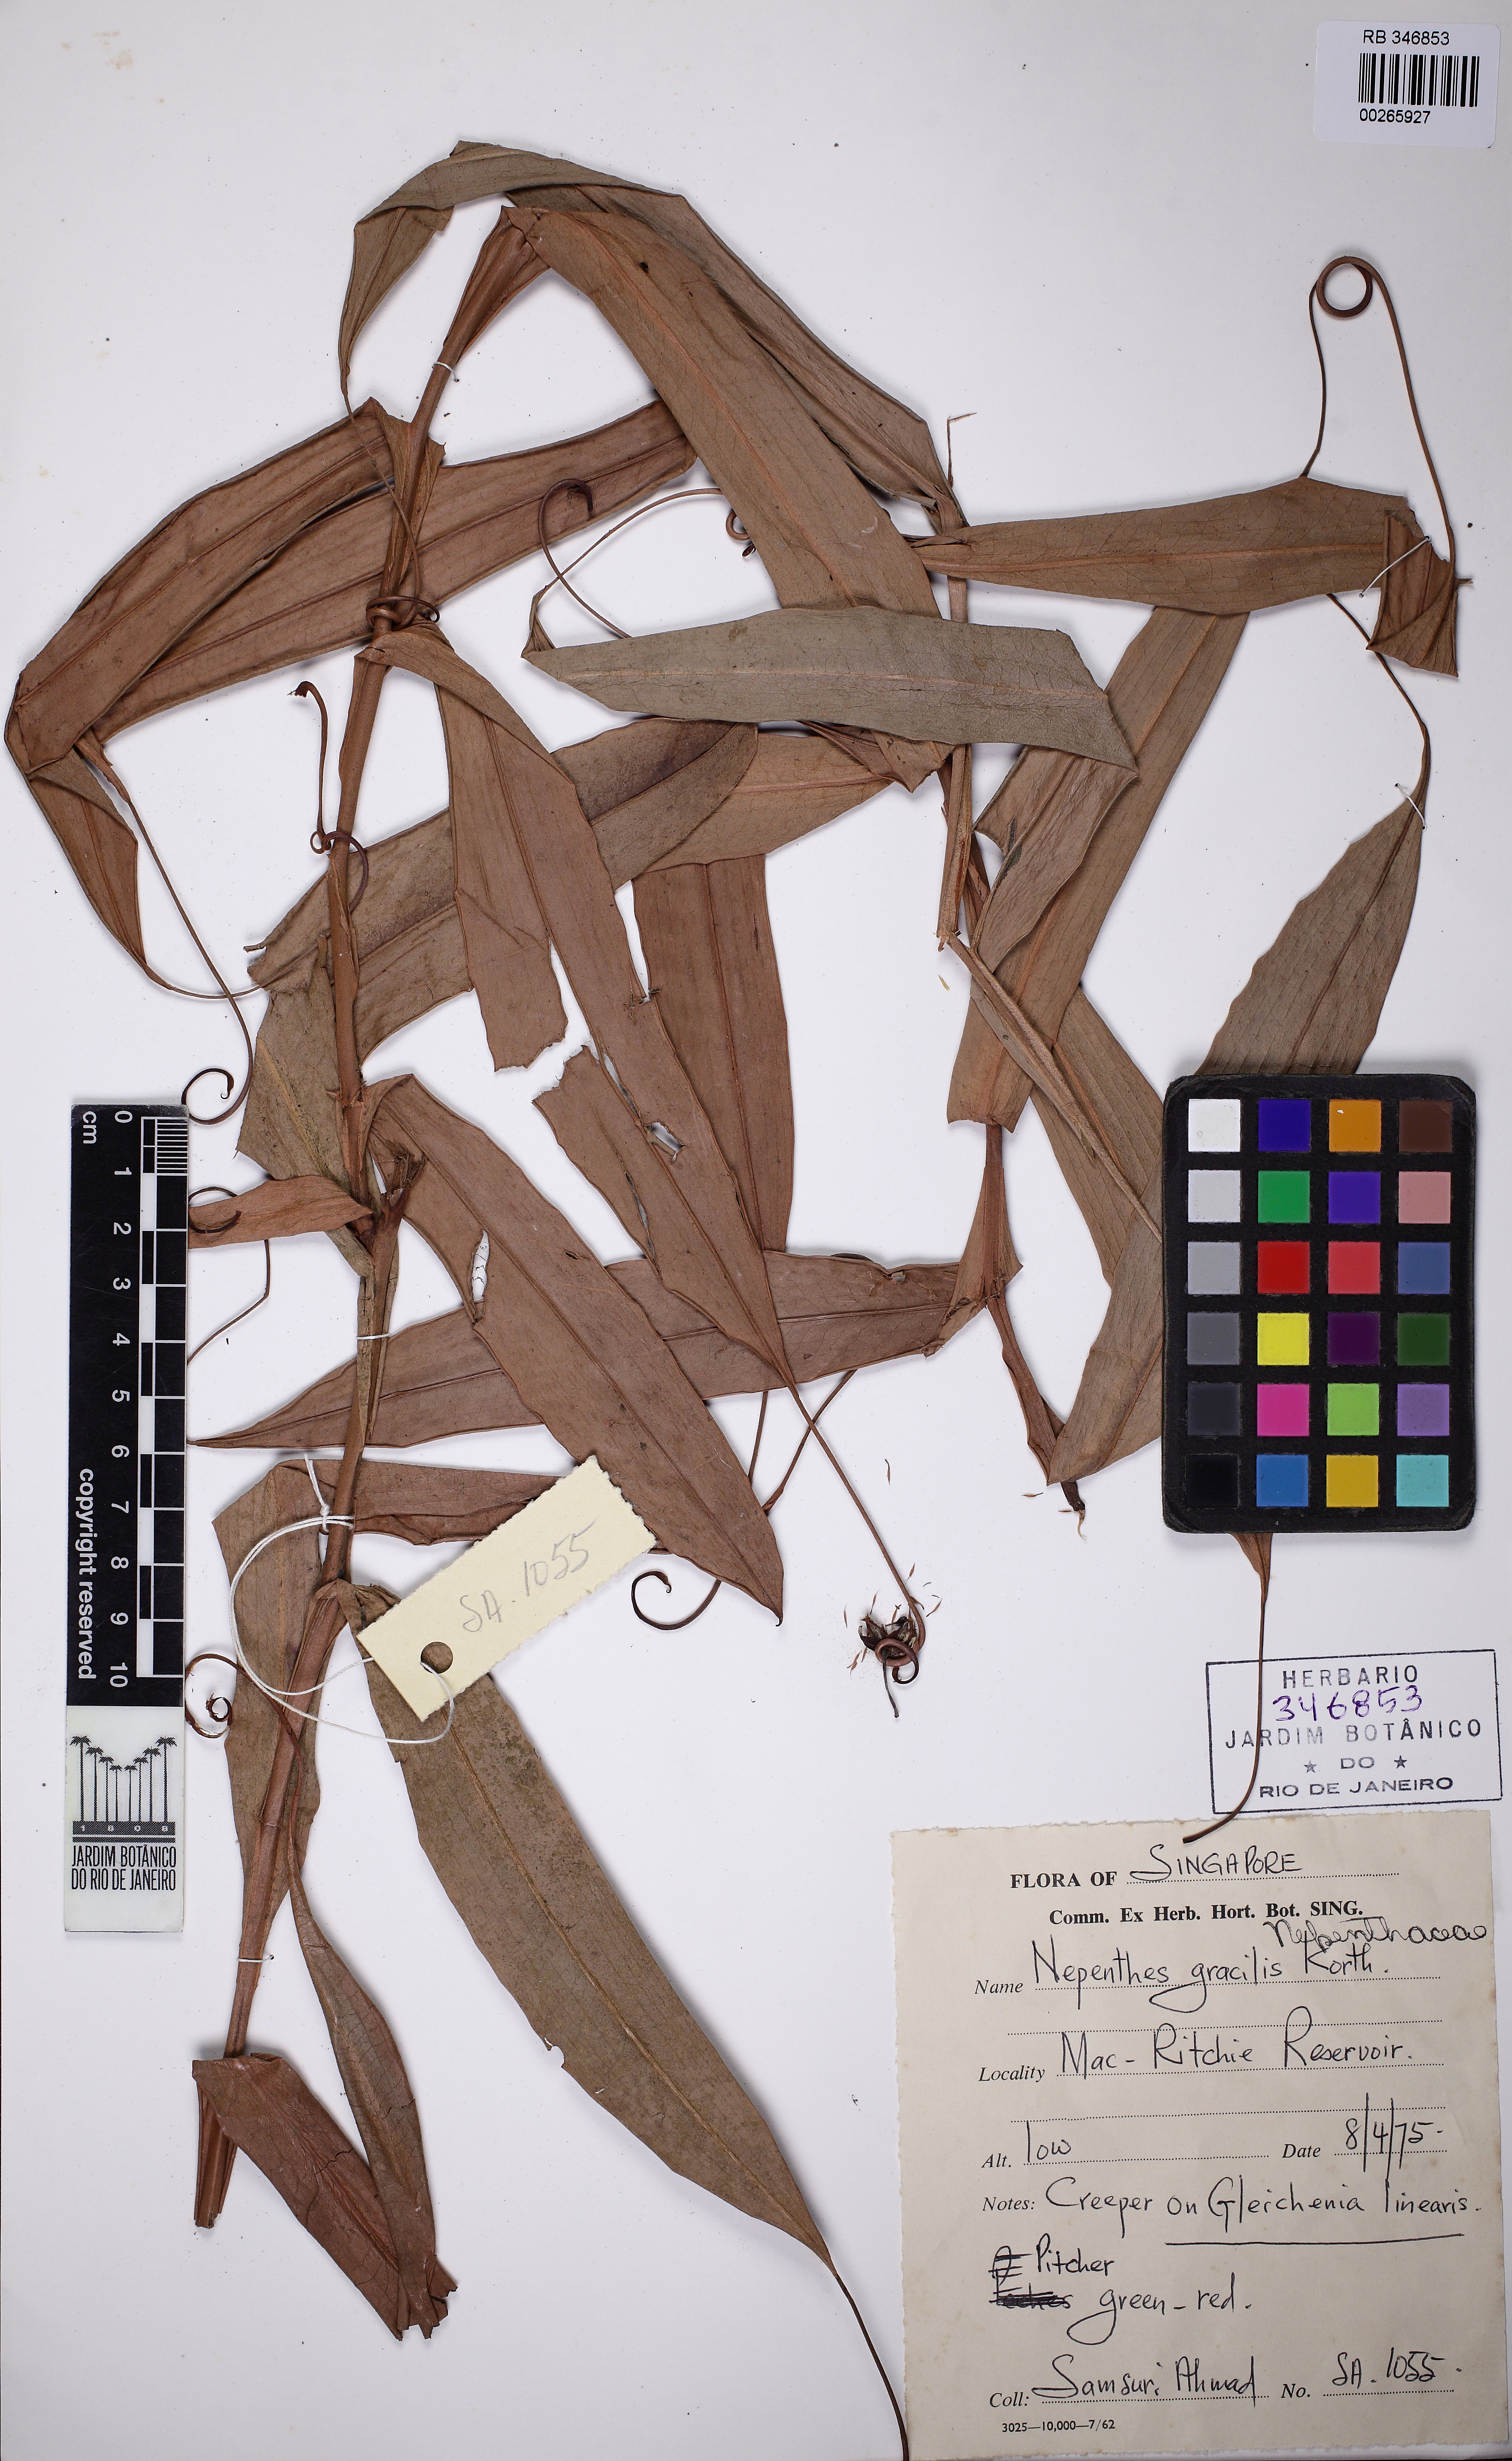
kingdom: Plantae
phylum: Tracheophyta
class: Magnoliopsida
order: Caryophyllales
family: Nepenthaceae
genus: Nepenthes
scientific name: Nepenthes gracilis
